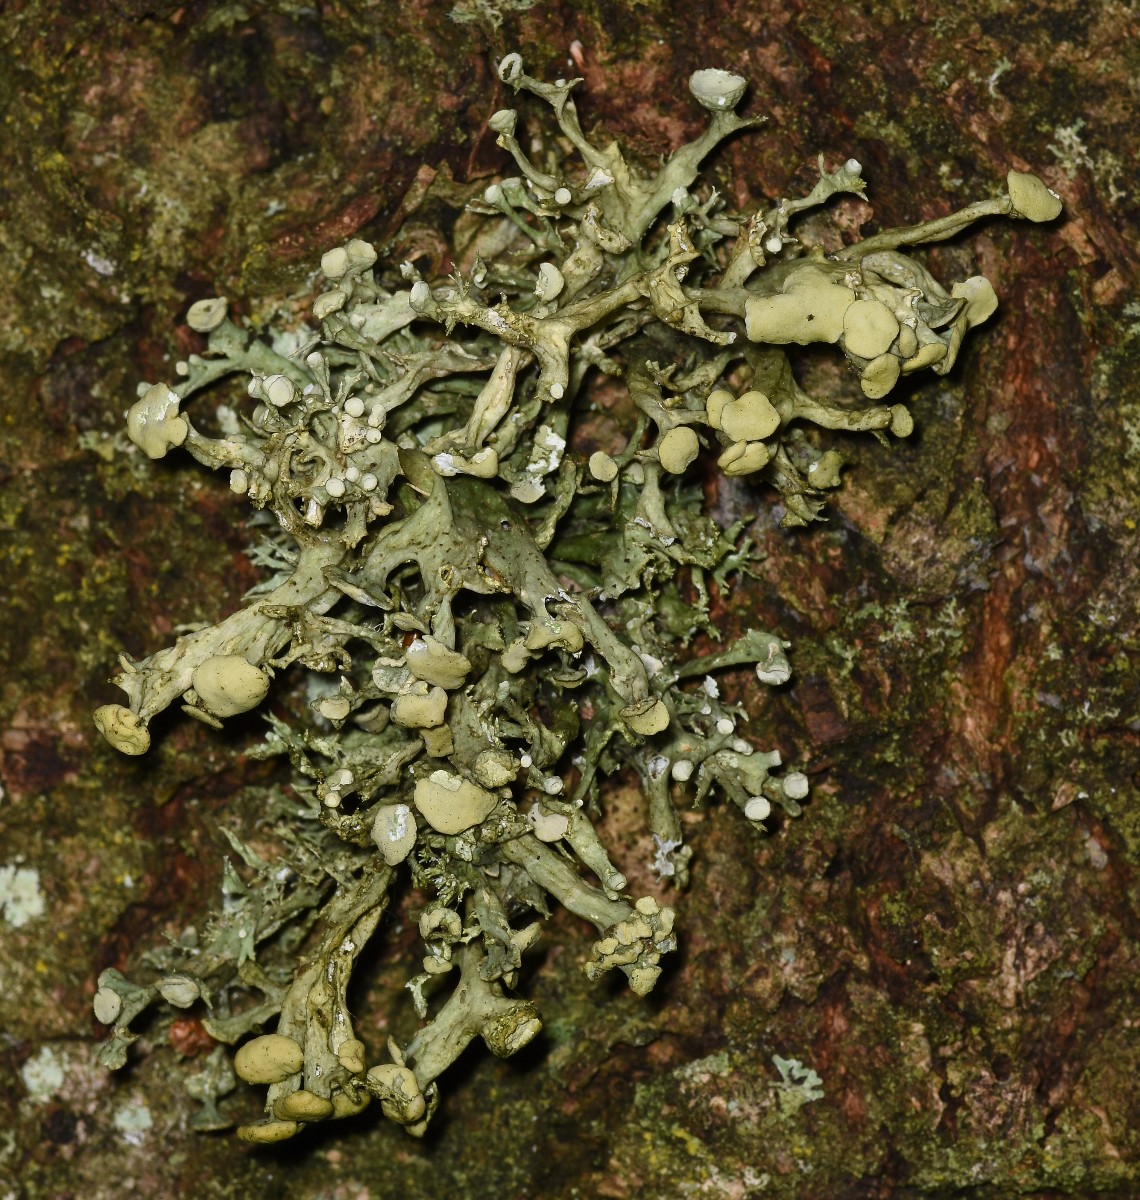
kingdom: Fungi
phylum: Ascomycota
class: Lecanoromycetes
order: Lecanorales
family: Ramalinaceae
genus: Ramalina
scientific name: Ramalina fastigiata
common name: tue-grenlav
